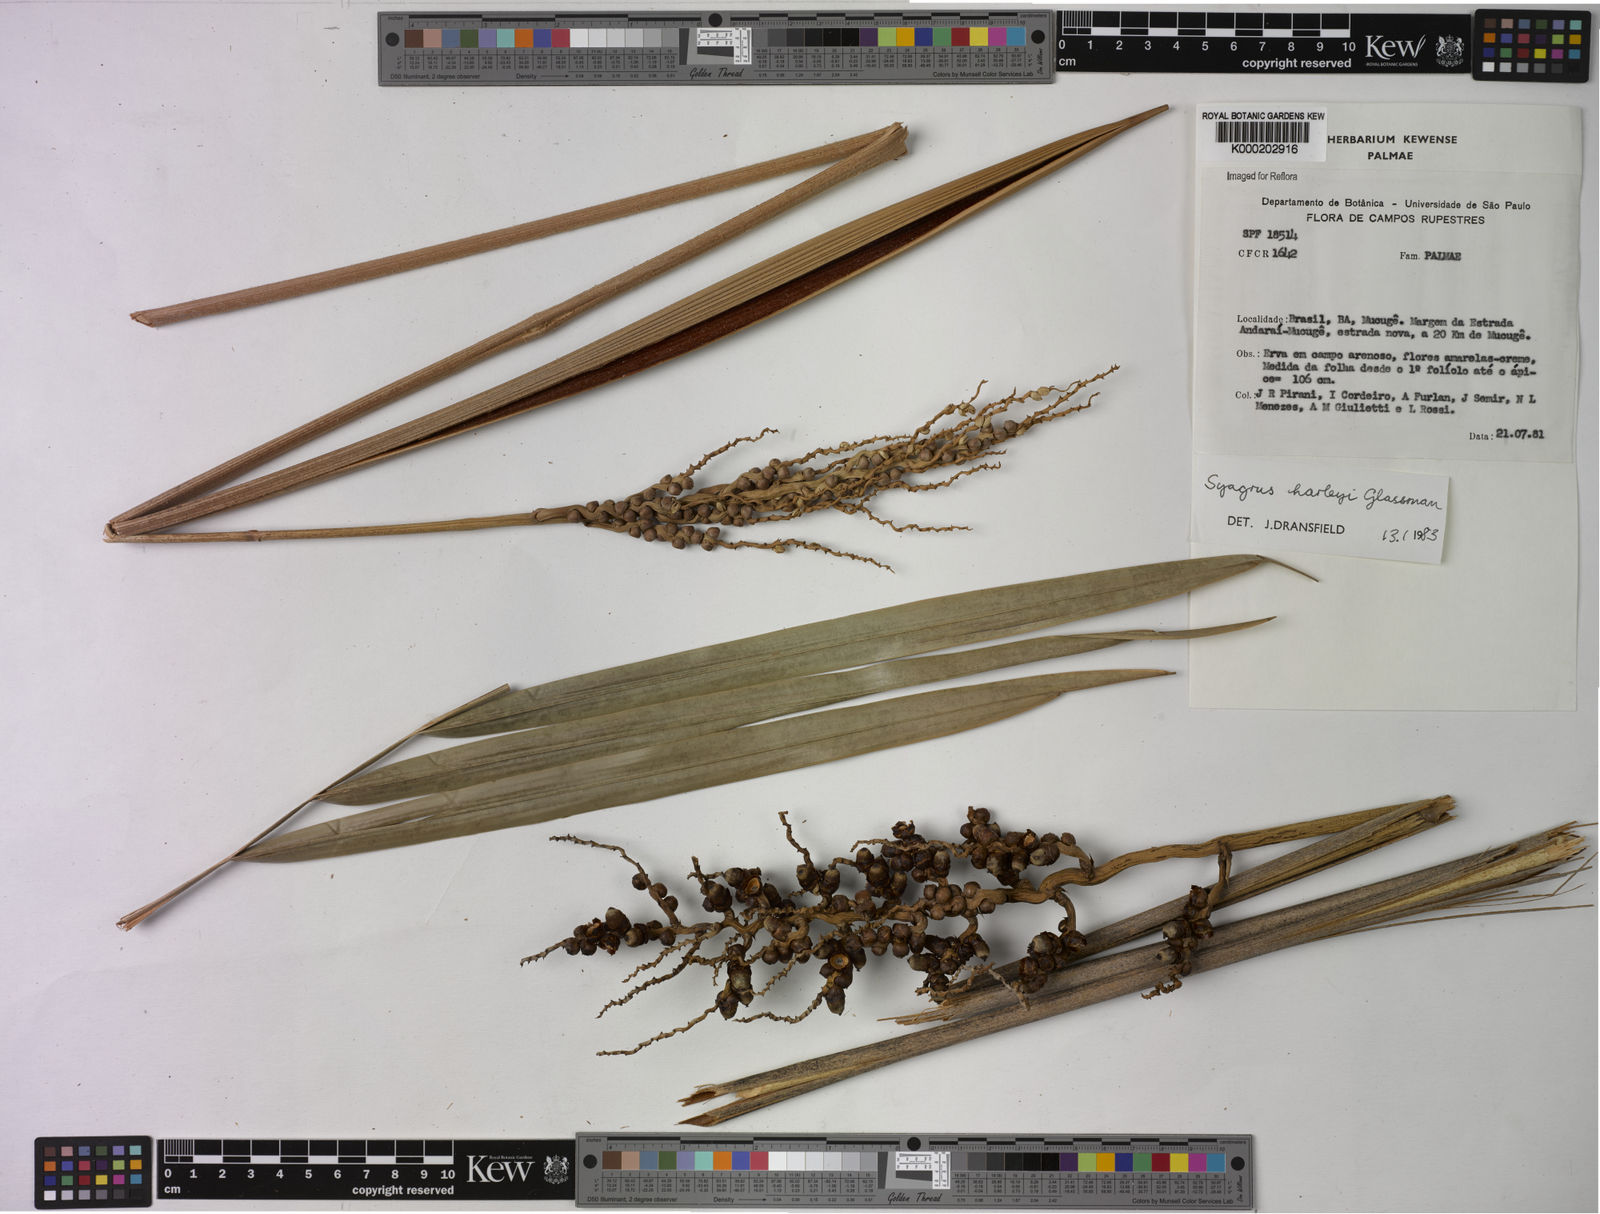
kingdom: Plantae
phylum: Tracheophyta
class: Liliopsida
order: Arecales
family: Arecaceae
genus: Syagrus
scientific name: Syagrus harleyi
